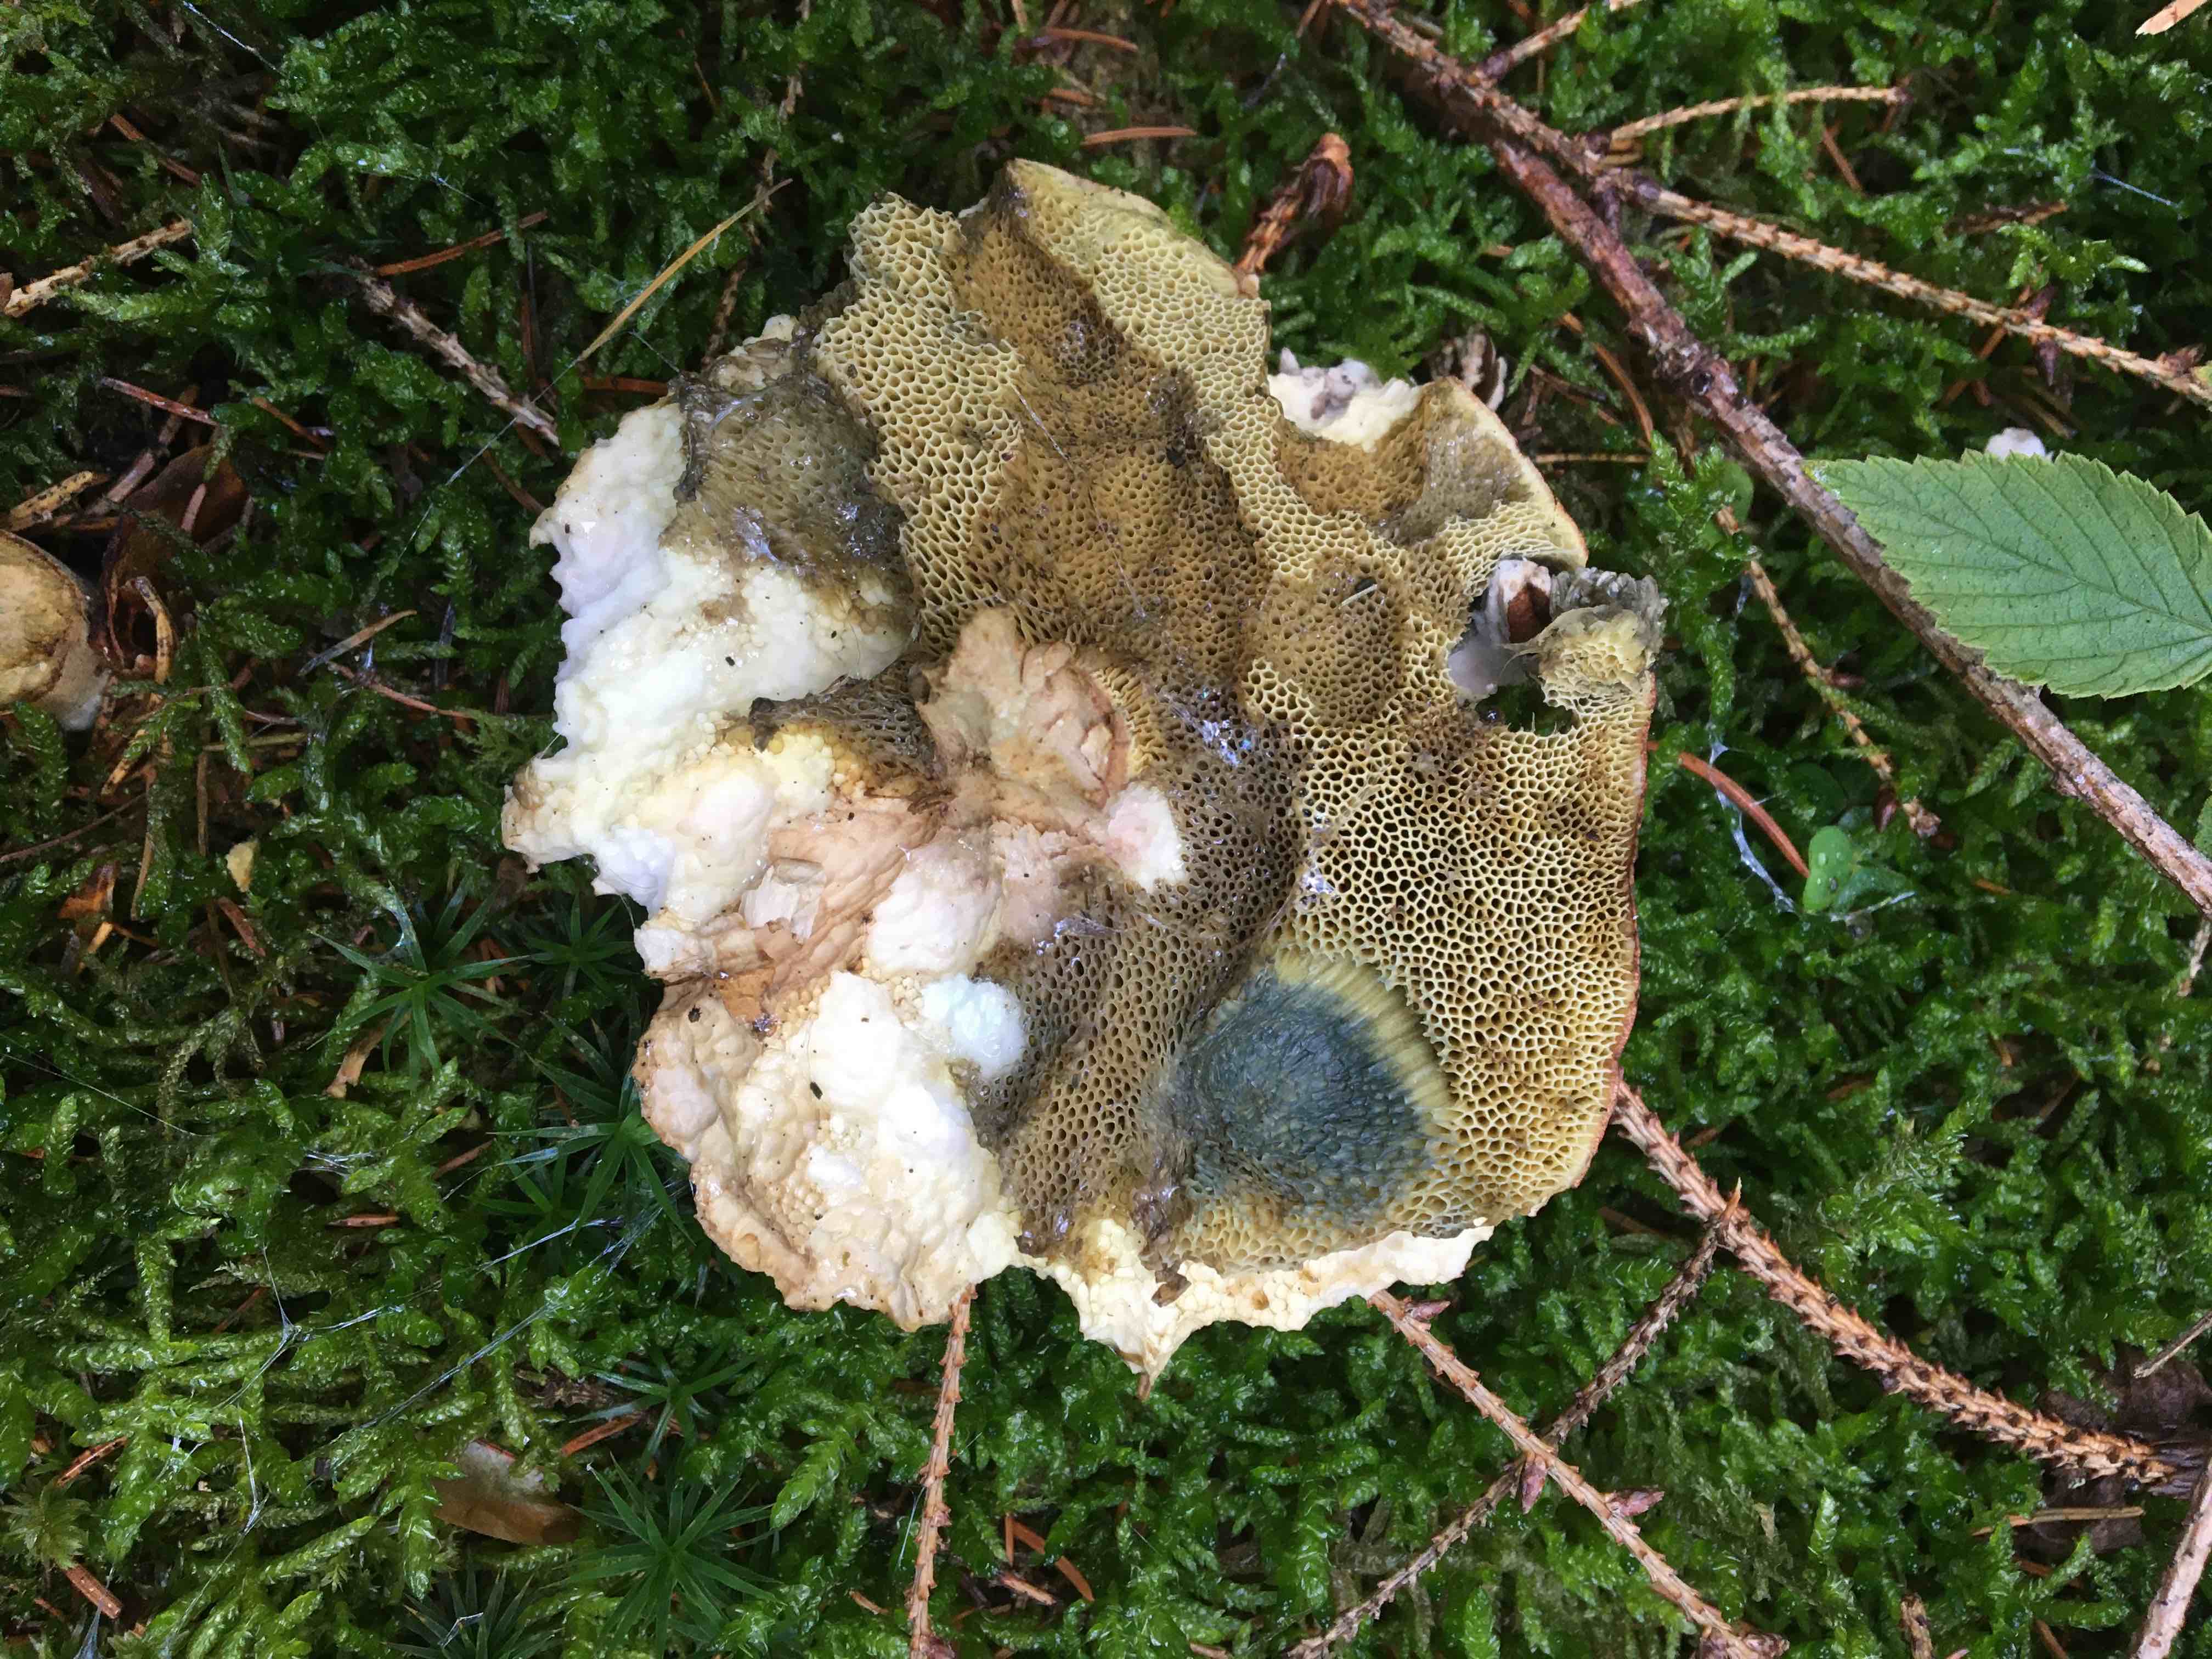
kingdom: Fungi
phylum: Basidiomycota
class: Agaricomycetes
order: Boletales
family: Boletaceae
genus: Imleria
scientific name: Imleria badia
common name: brunstokket rørhat
